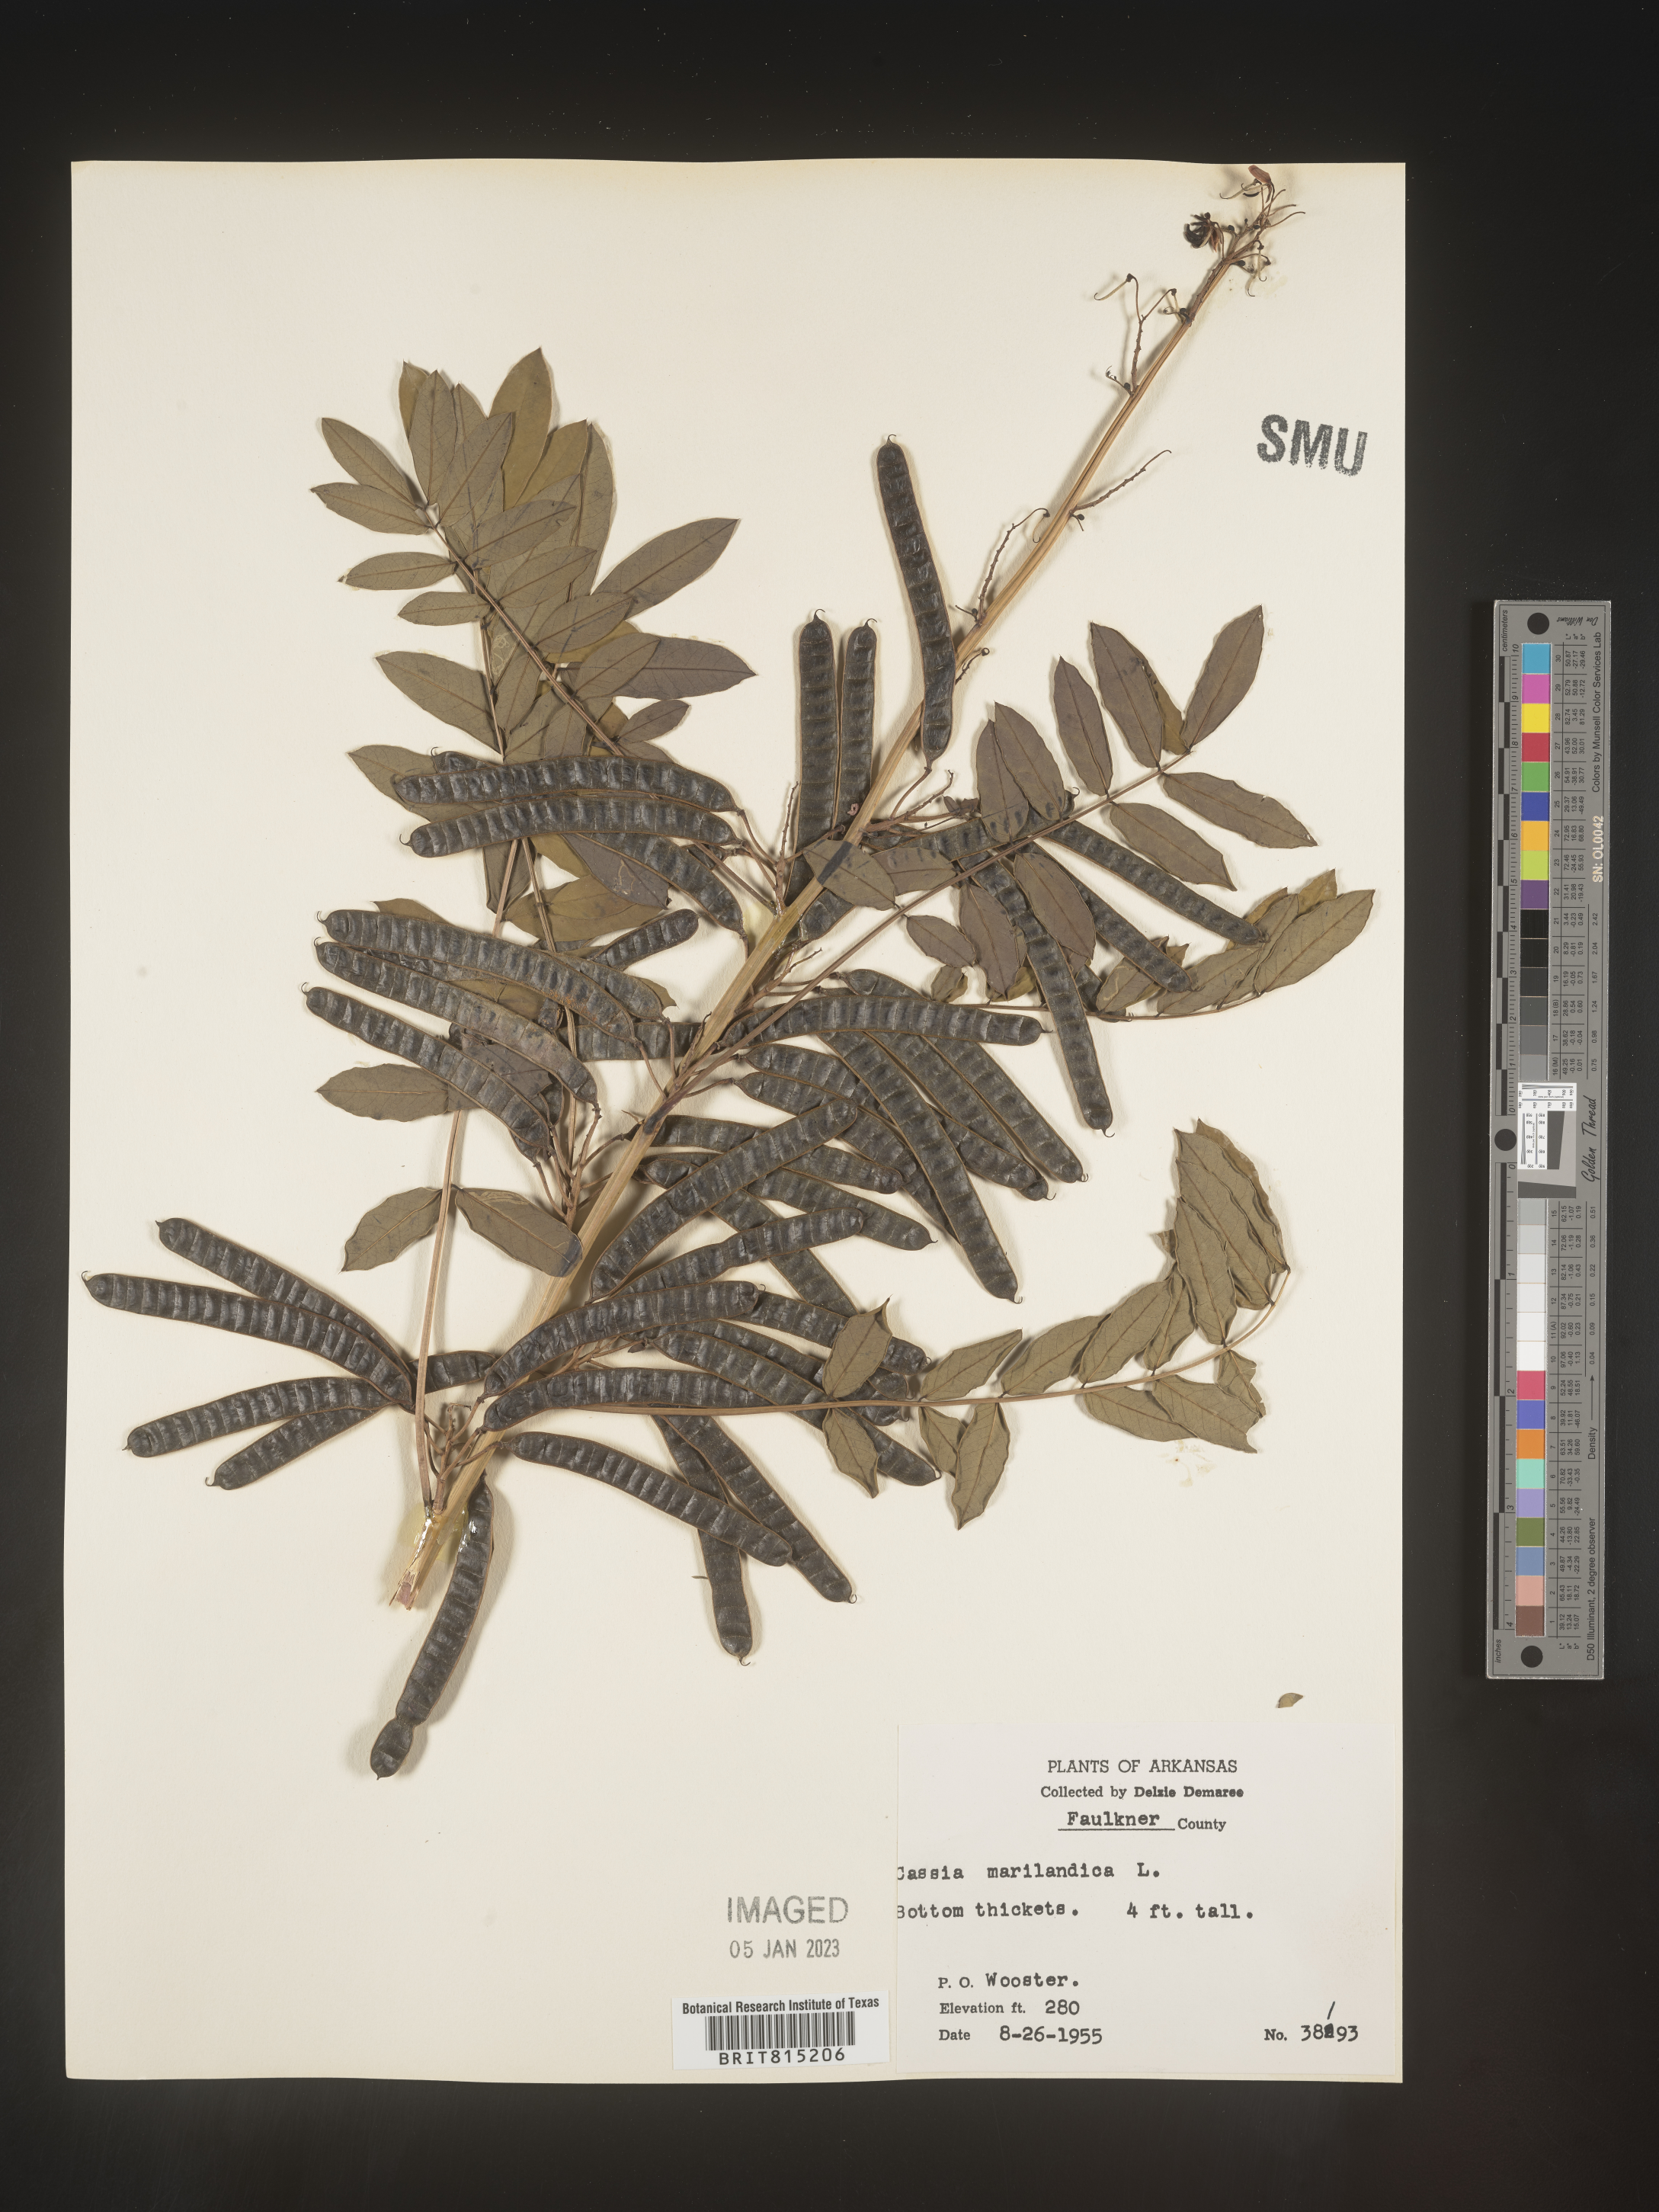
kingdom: Plantae
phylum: Tracheophyta
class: Magnoliopsida
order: Fabales
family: Fabaceae
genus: Senna
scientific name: Senna marilandica
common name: American senna
